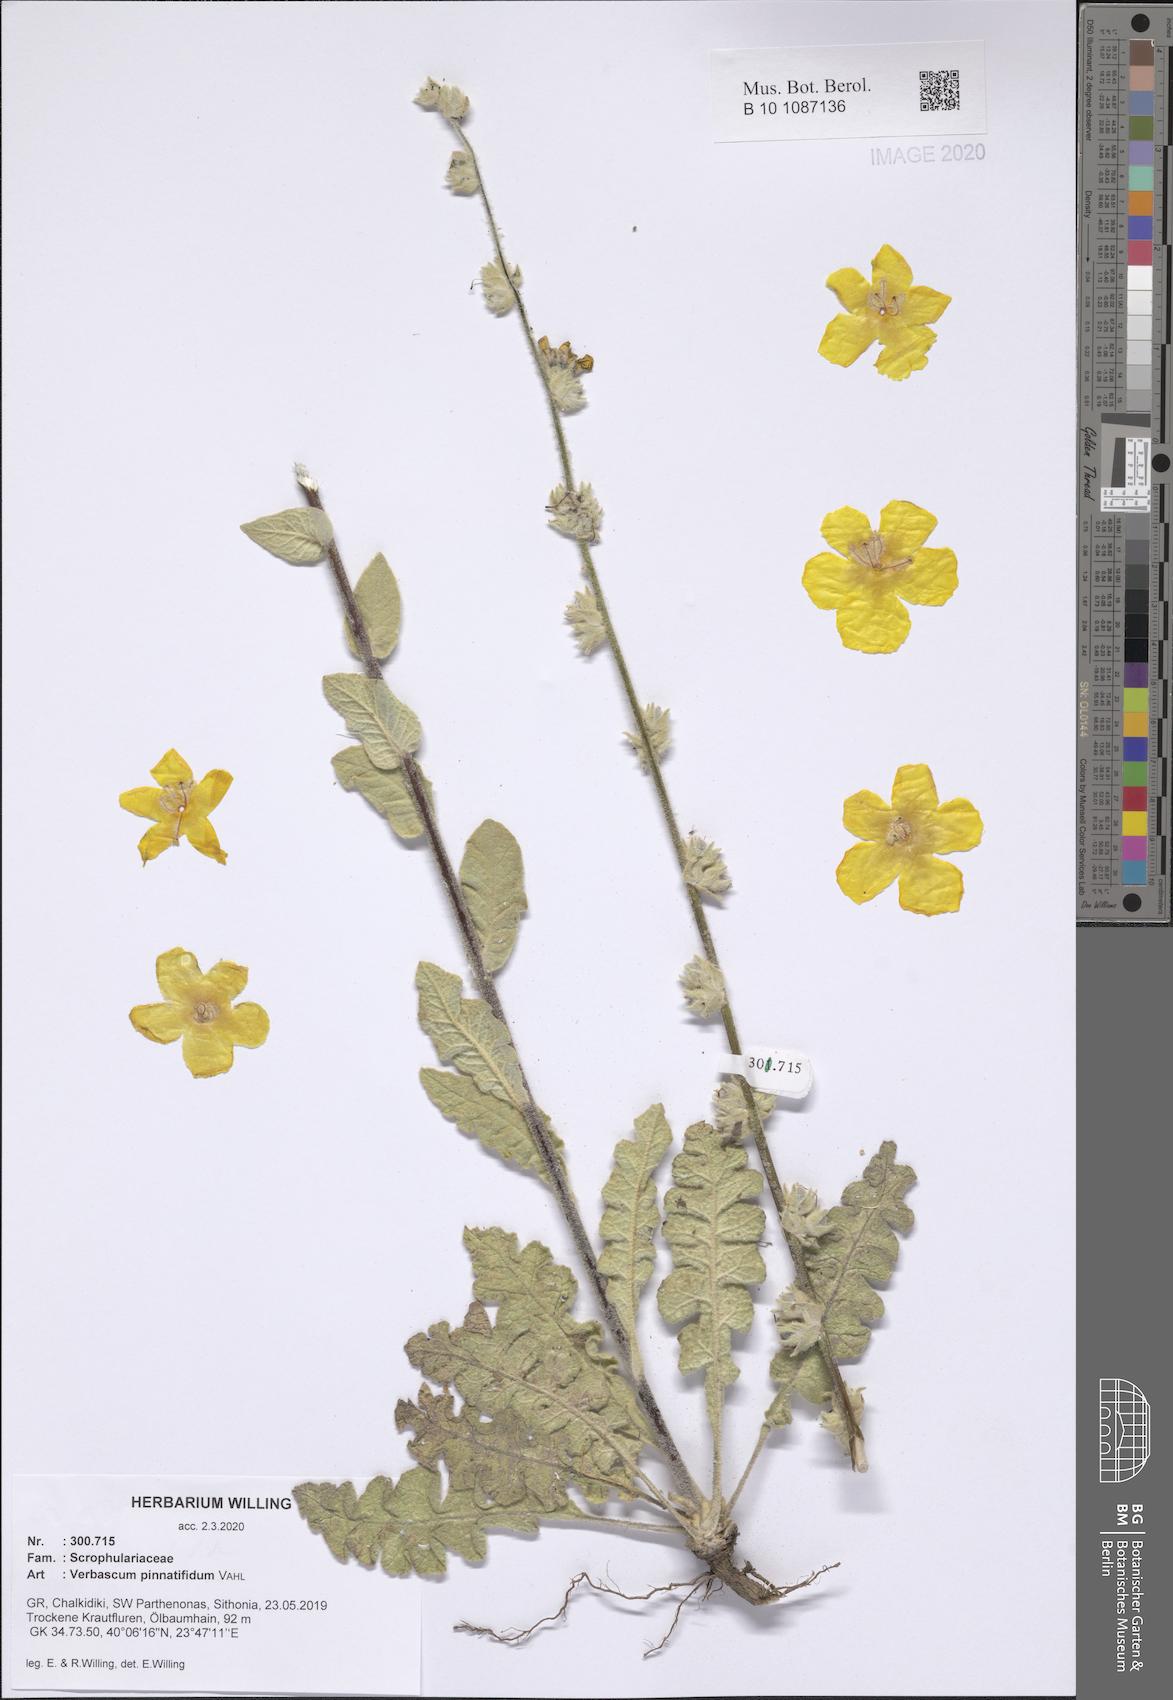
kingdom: Plantae
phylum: Tracheophyta
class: Magnoliopsida
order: Lamiales
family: Scrophulariaceae
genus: Verbascum
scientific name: Verbascum pinnatifidum
